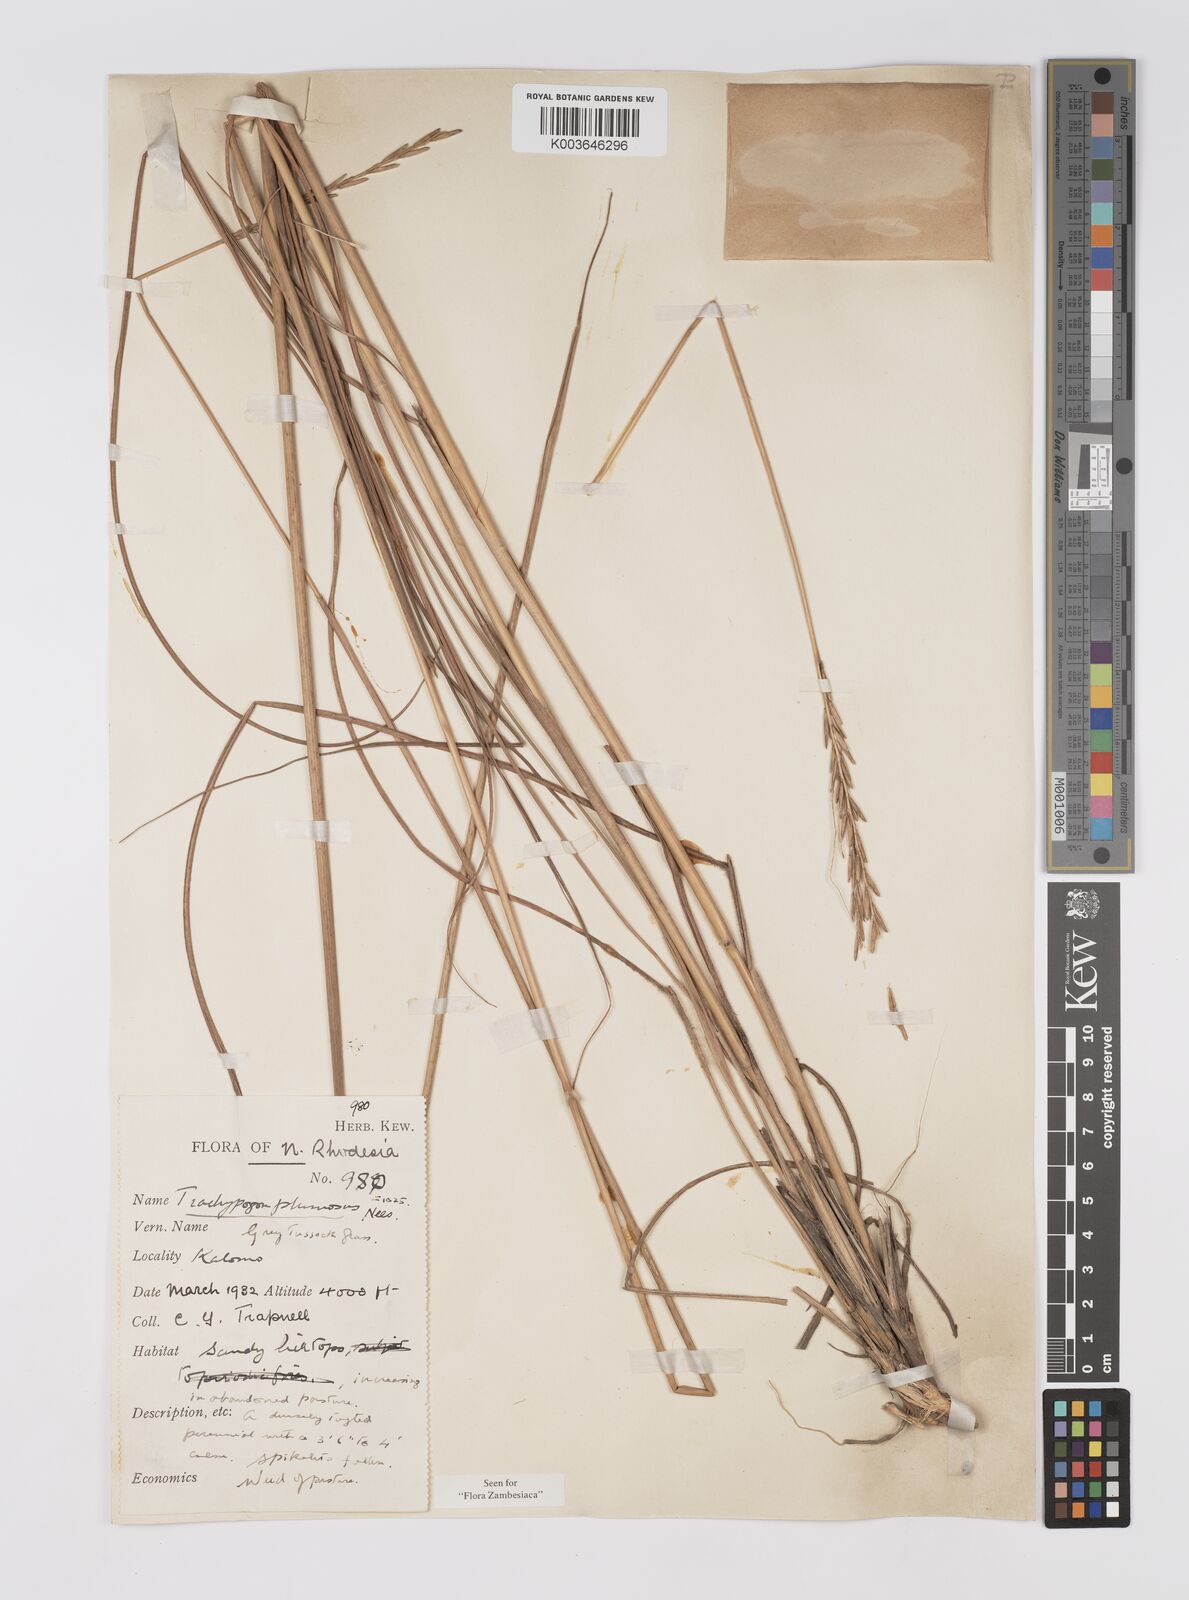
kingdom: Plantae
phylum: Tracheophyta
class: Liliopsida
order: Poales
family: Poaceae
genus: Trachypogon
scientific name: Trachypogon spicatus
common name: Crinkle-awn
